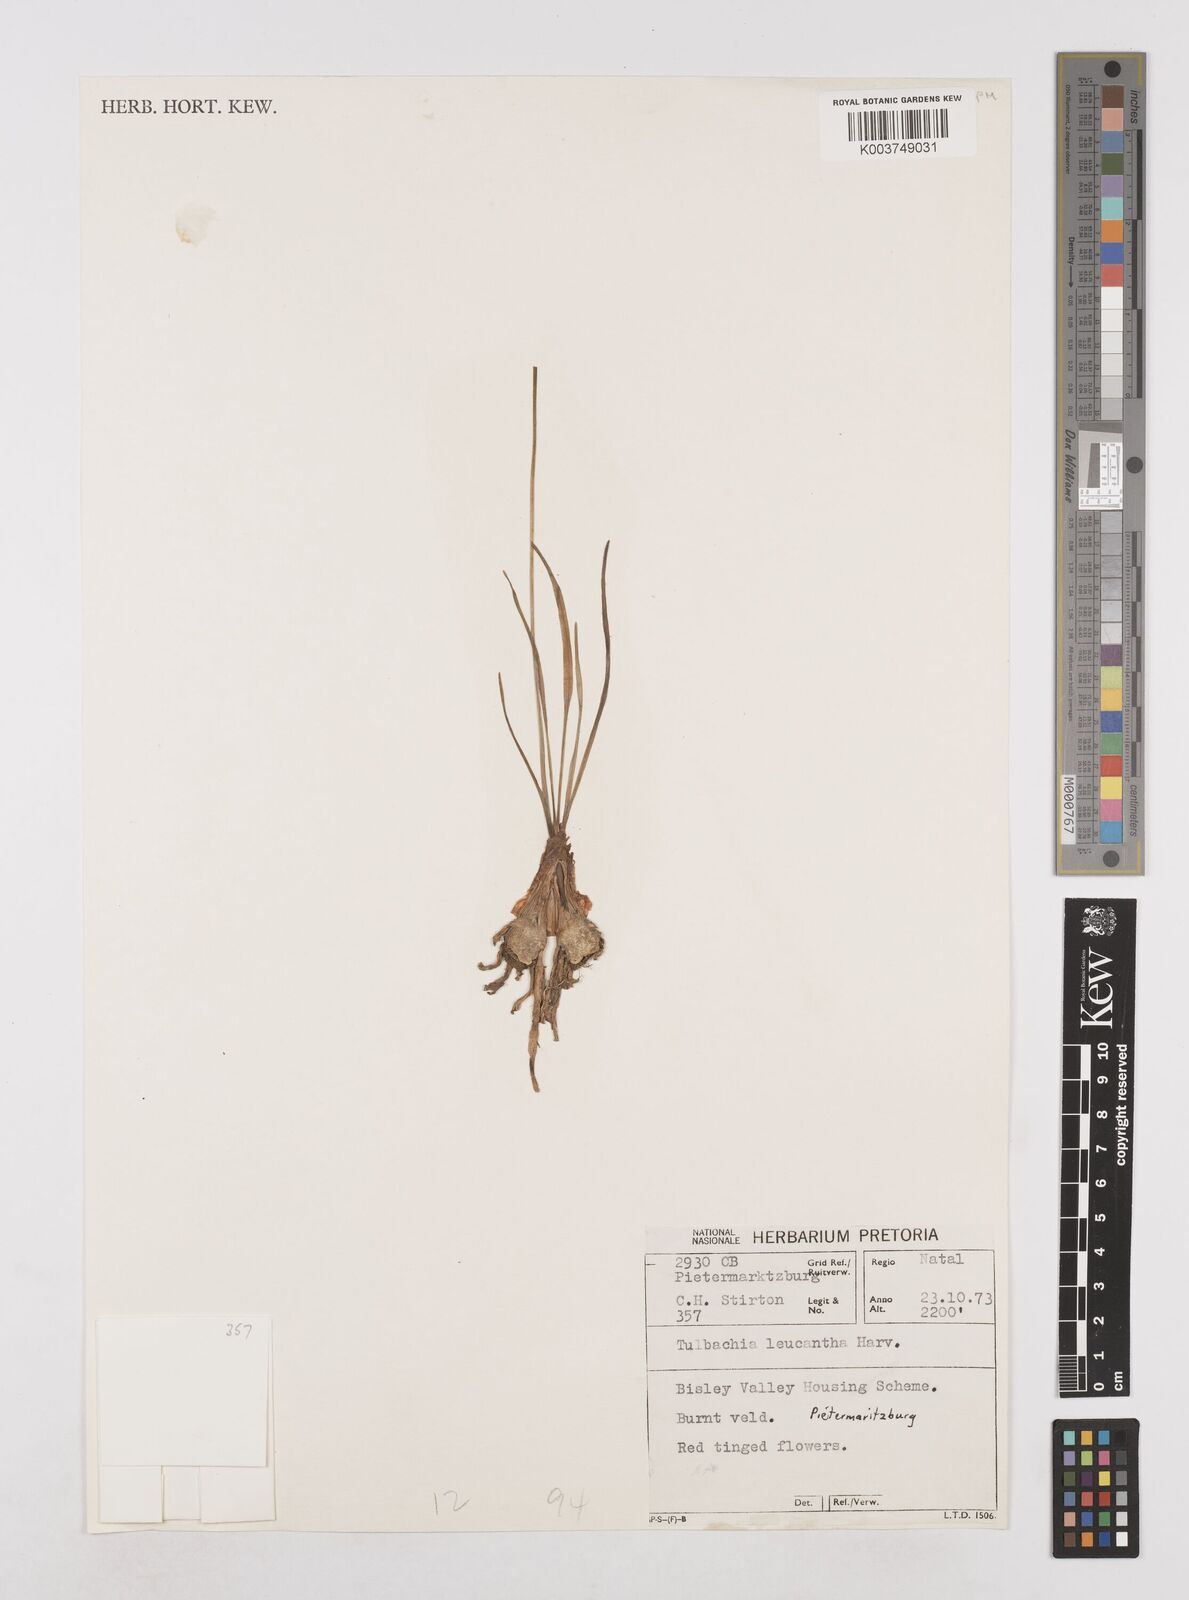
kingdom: Plantae
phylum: Tracheophyta
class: Liliopsida
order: Asparagales
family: Amaryllidaceae
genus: Tulbaghia
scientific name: Tulbaghia leucantha
